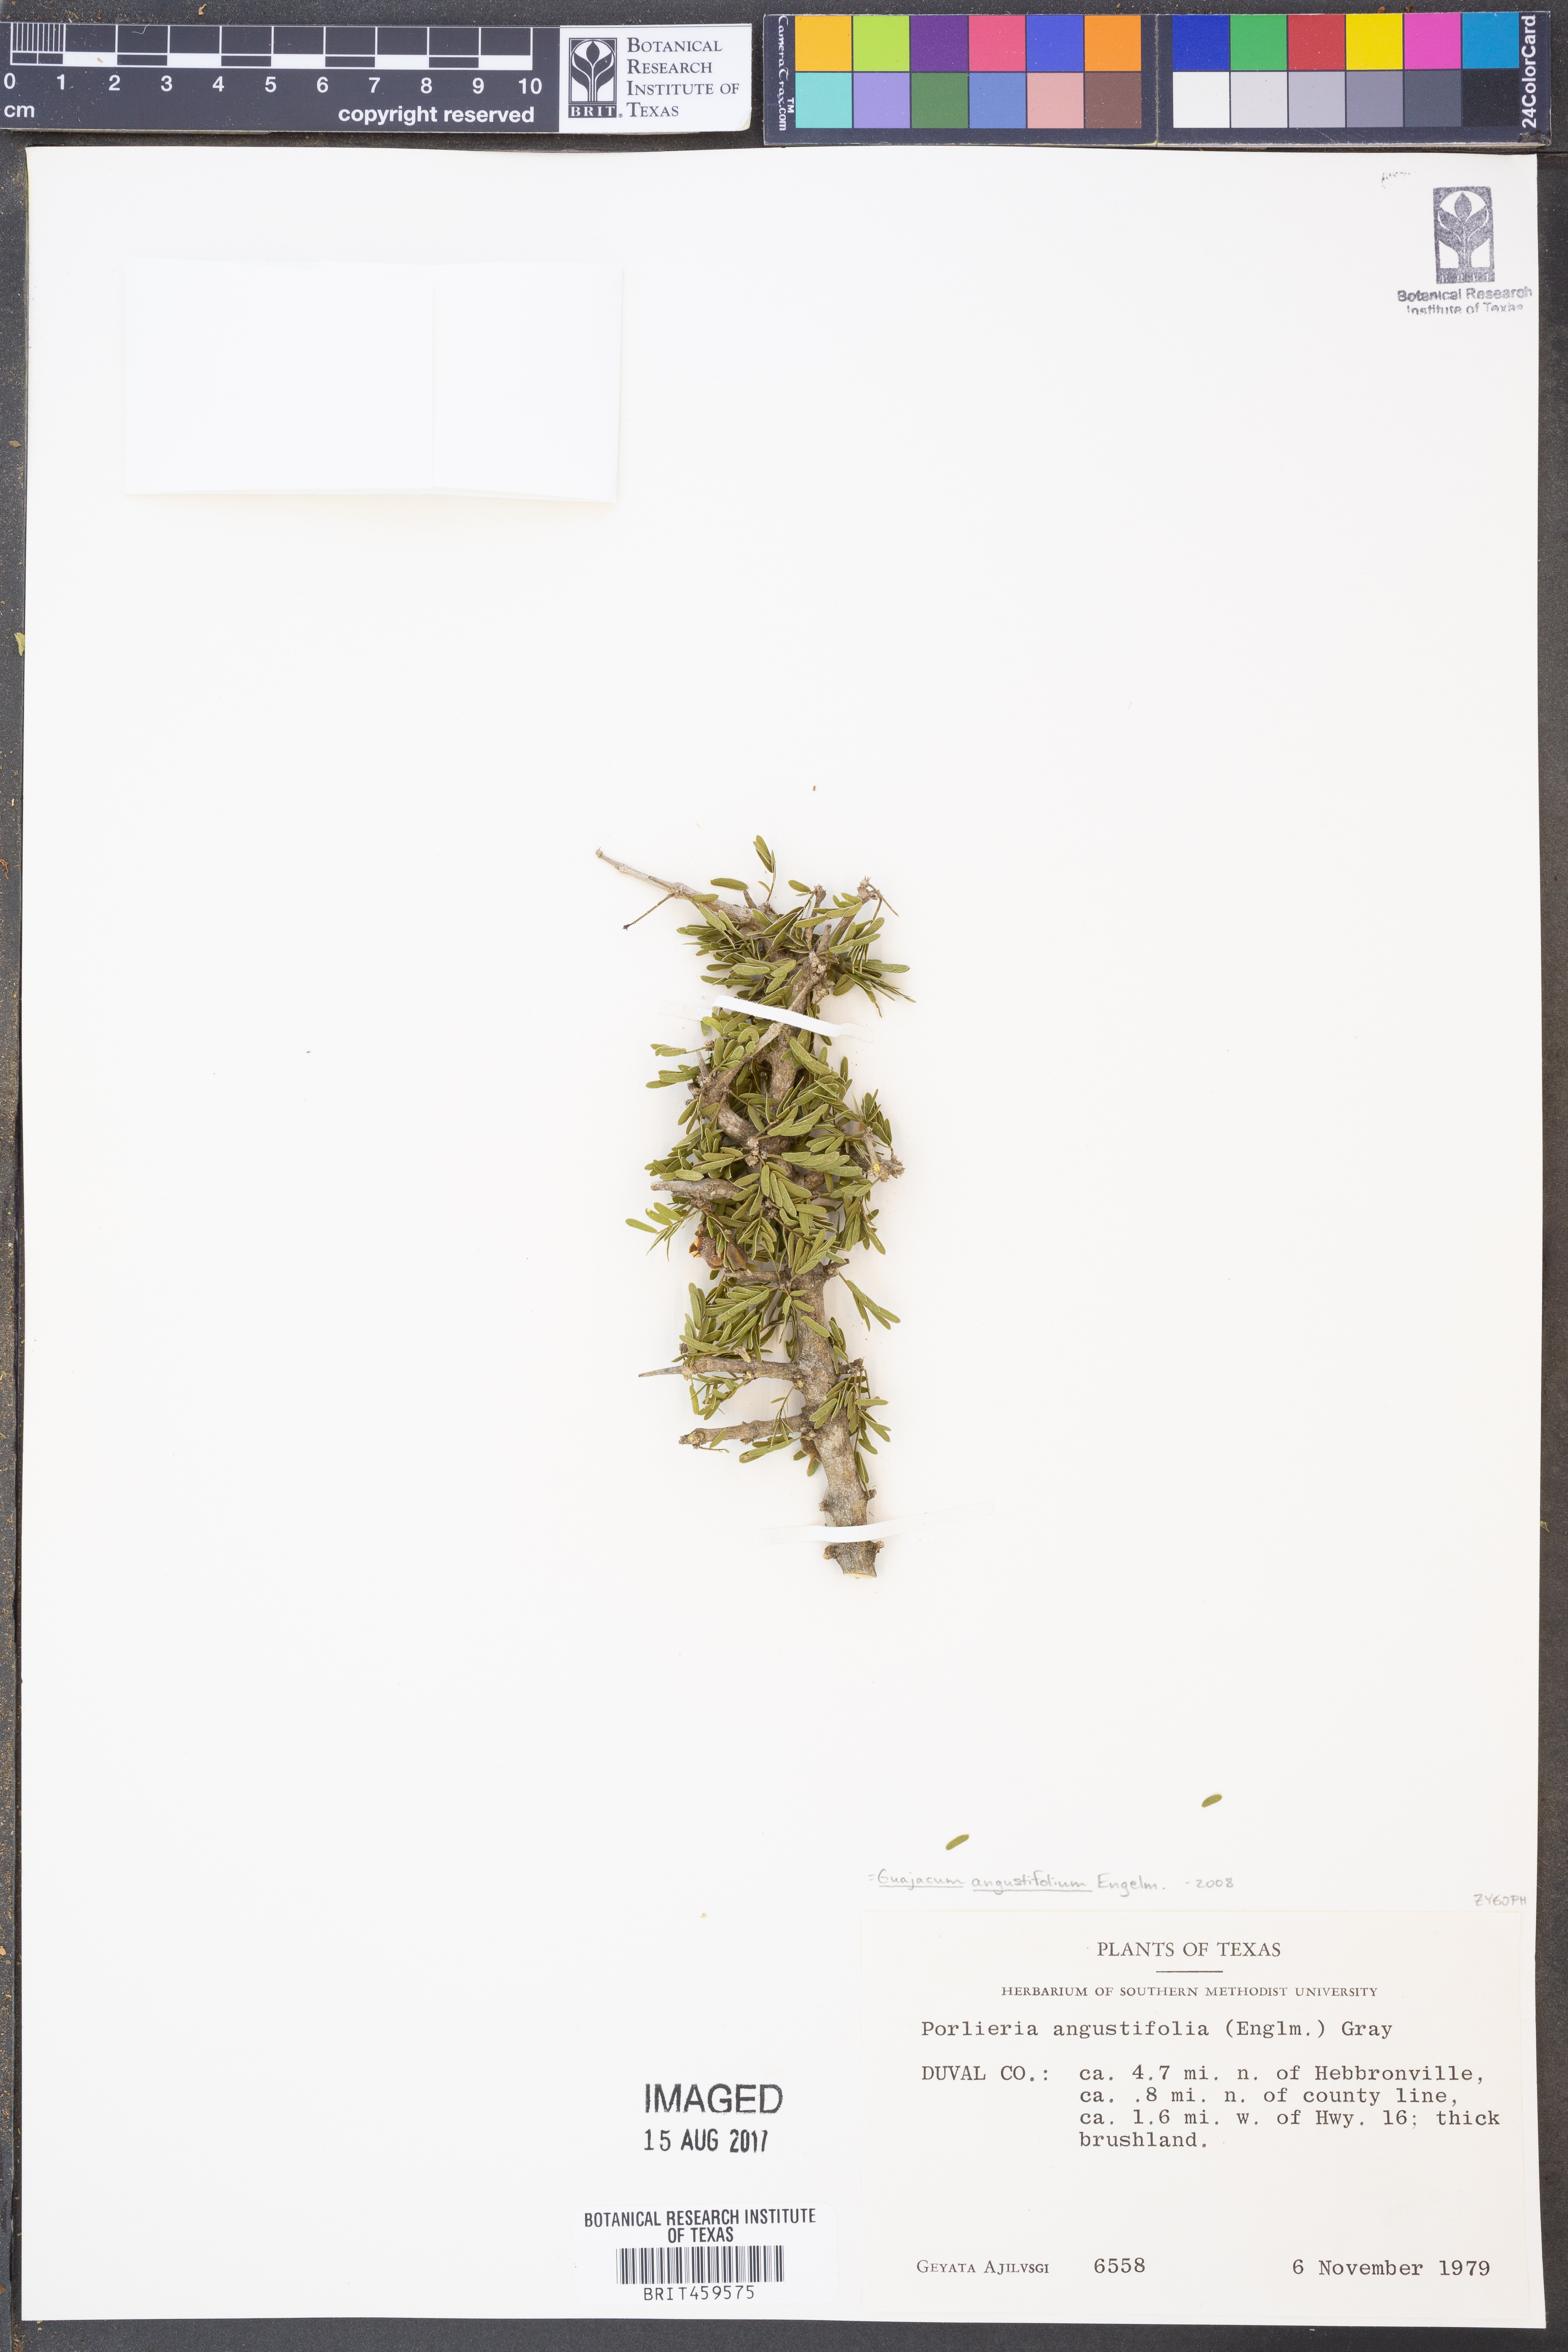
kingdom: Plantae
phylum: Tracheophyta
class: Magnoliopsida
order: Zygophyllales
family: Zygophyllaceae
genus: Porlieria
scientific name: Porlieria angustifolia
